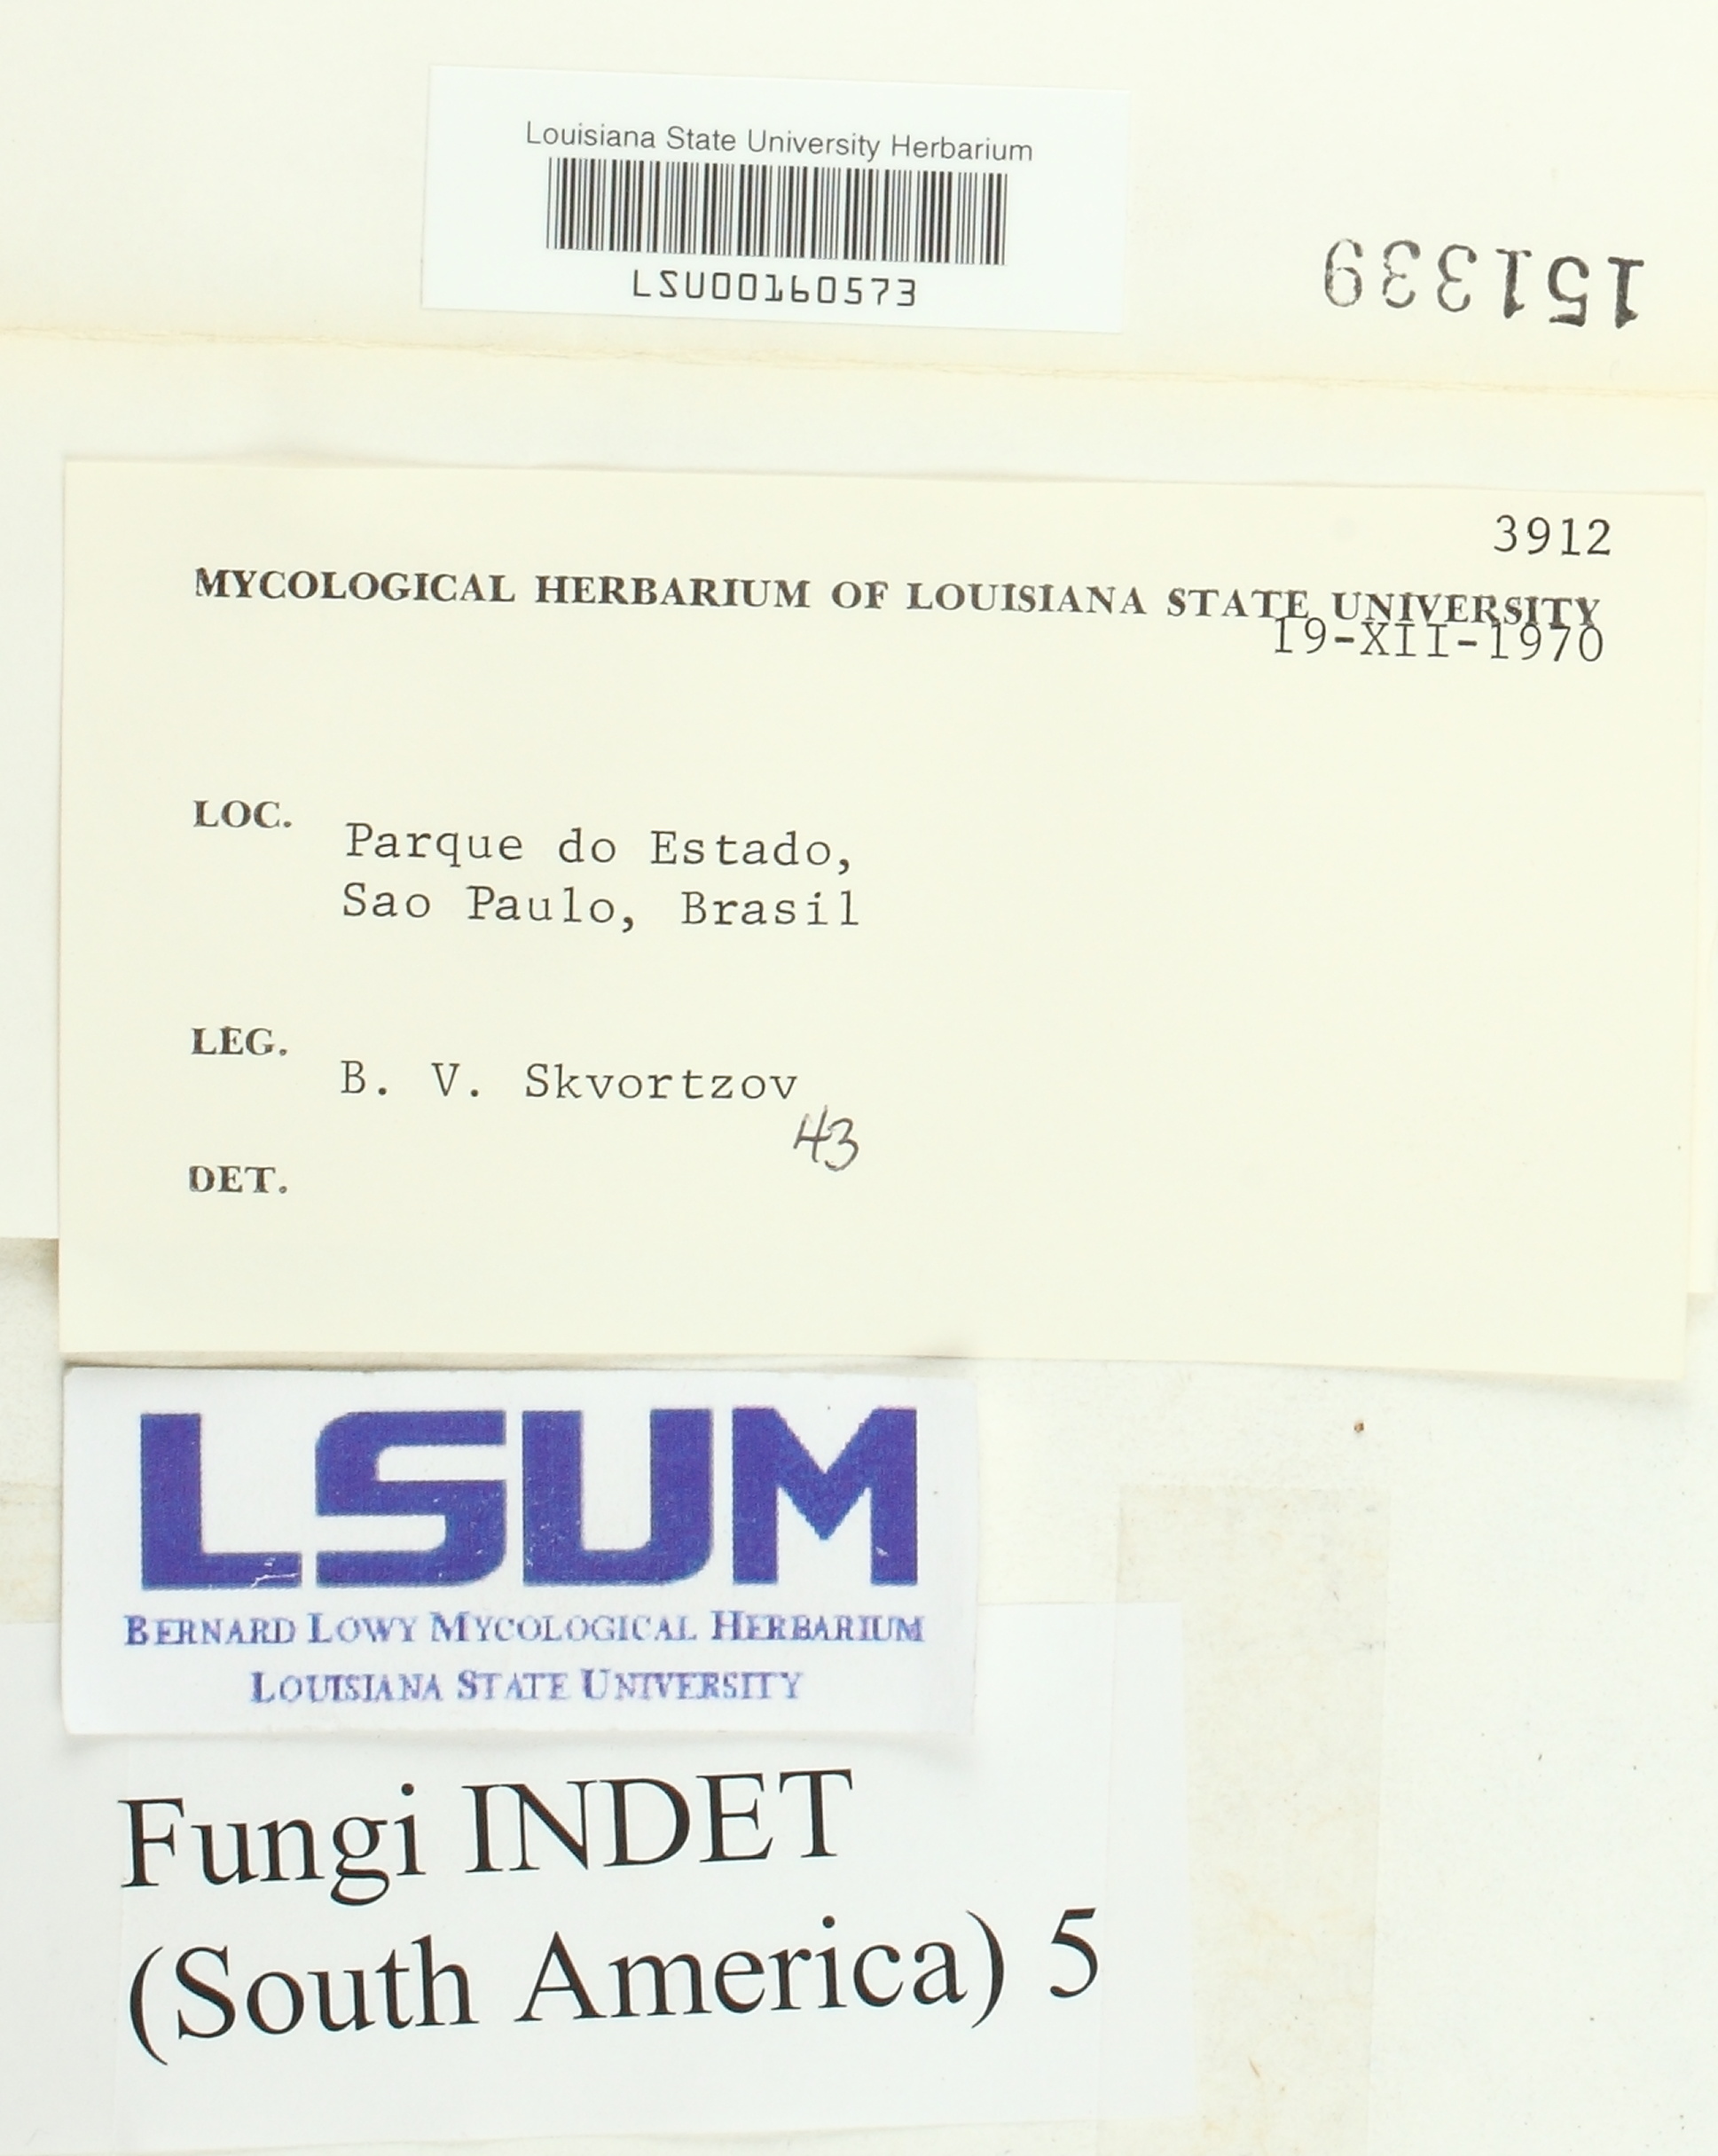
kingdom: Fungi
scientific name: Fungi
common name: Fungi
